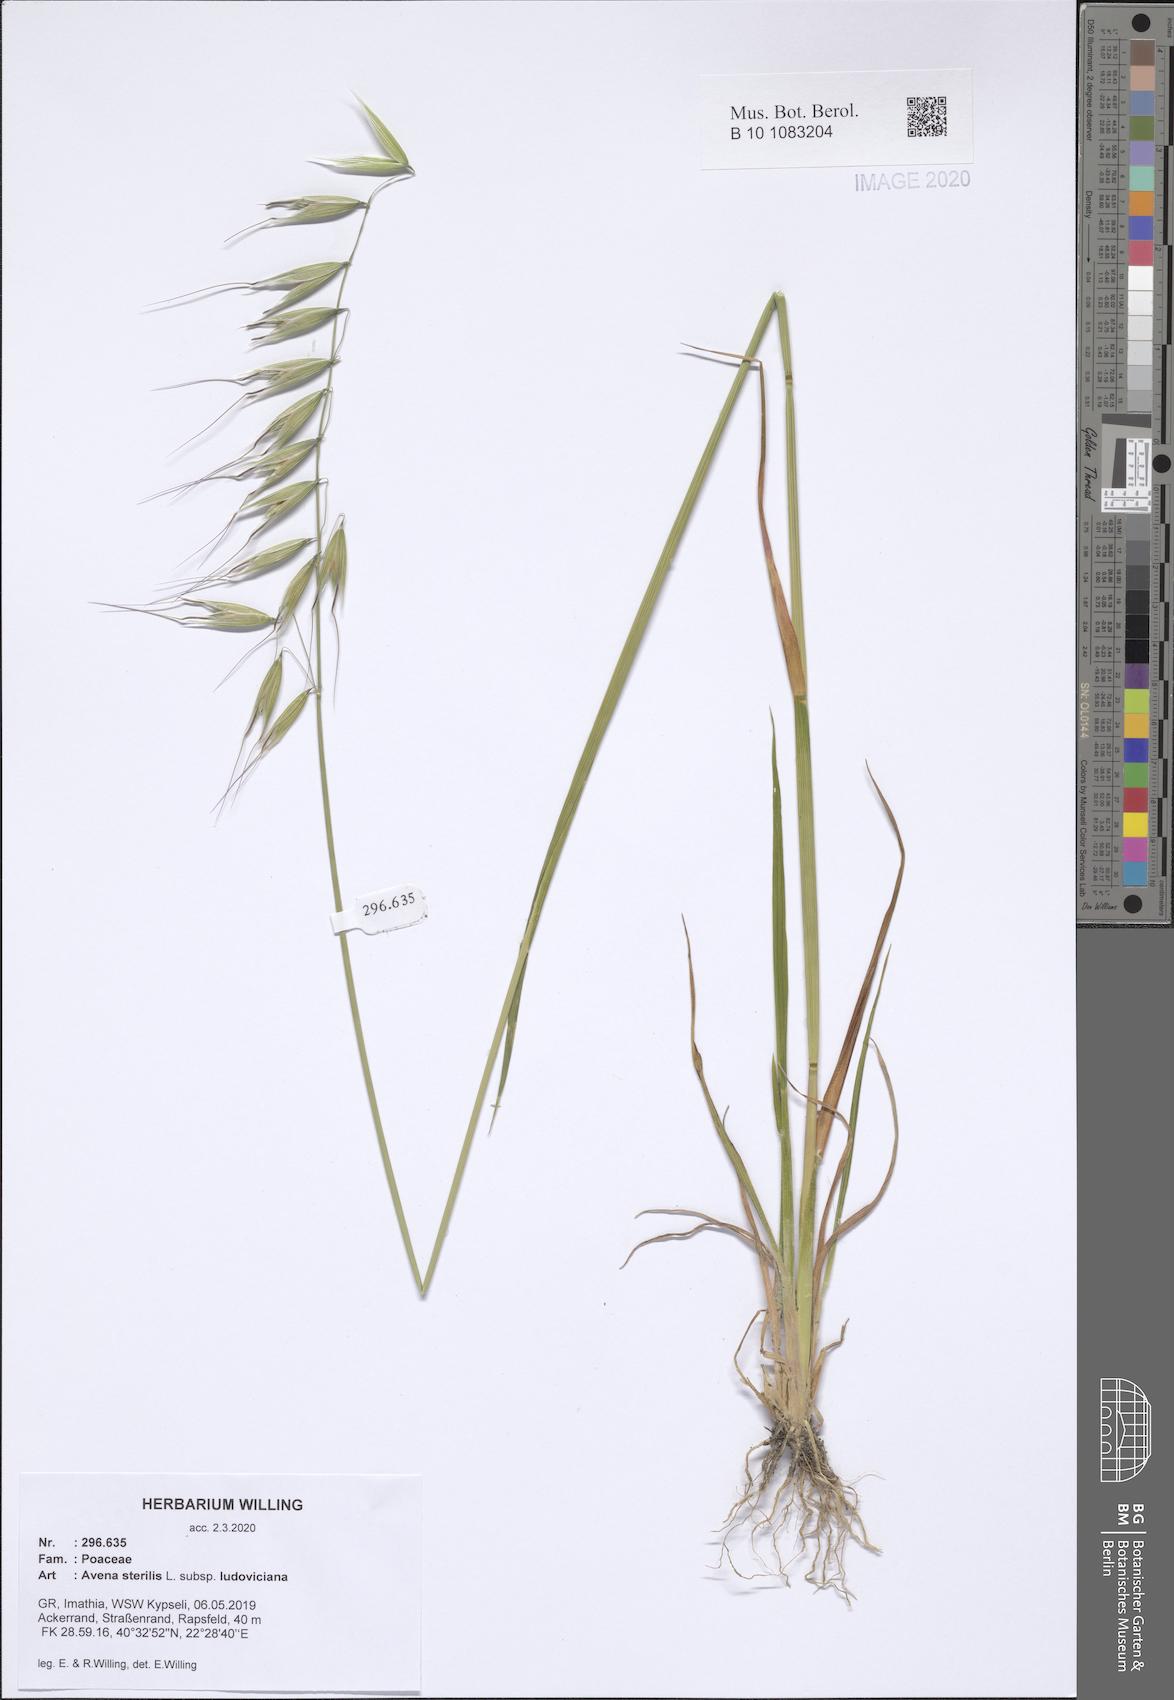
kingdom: Plantae
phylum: Tracheophyta
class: Liliopsida
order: Poales
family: Poaceae
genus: Avena
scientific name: Avena sterilis
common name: Animated oat
